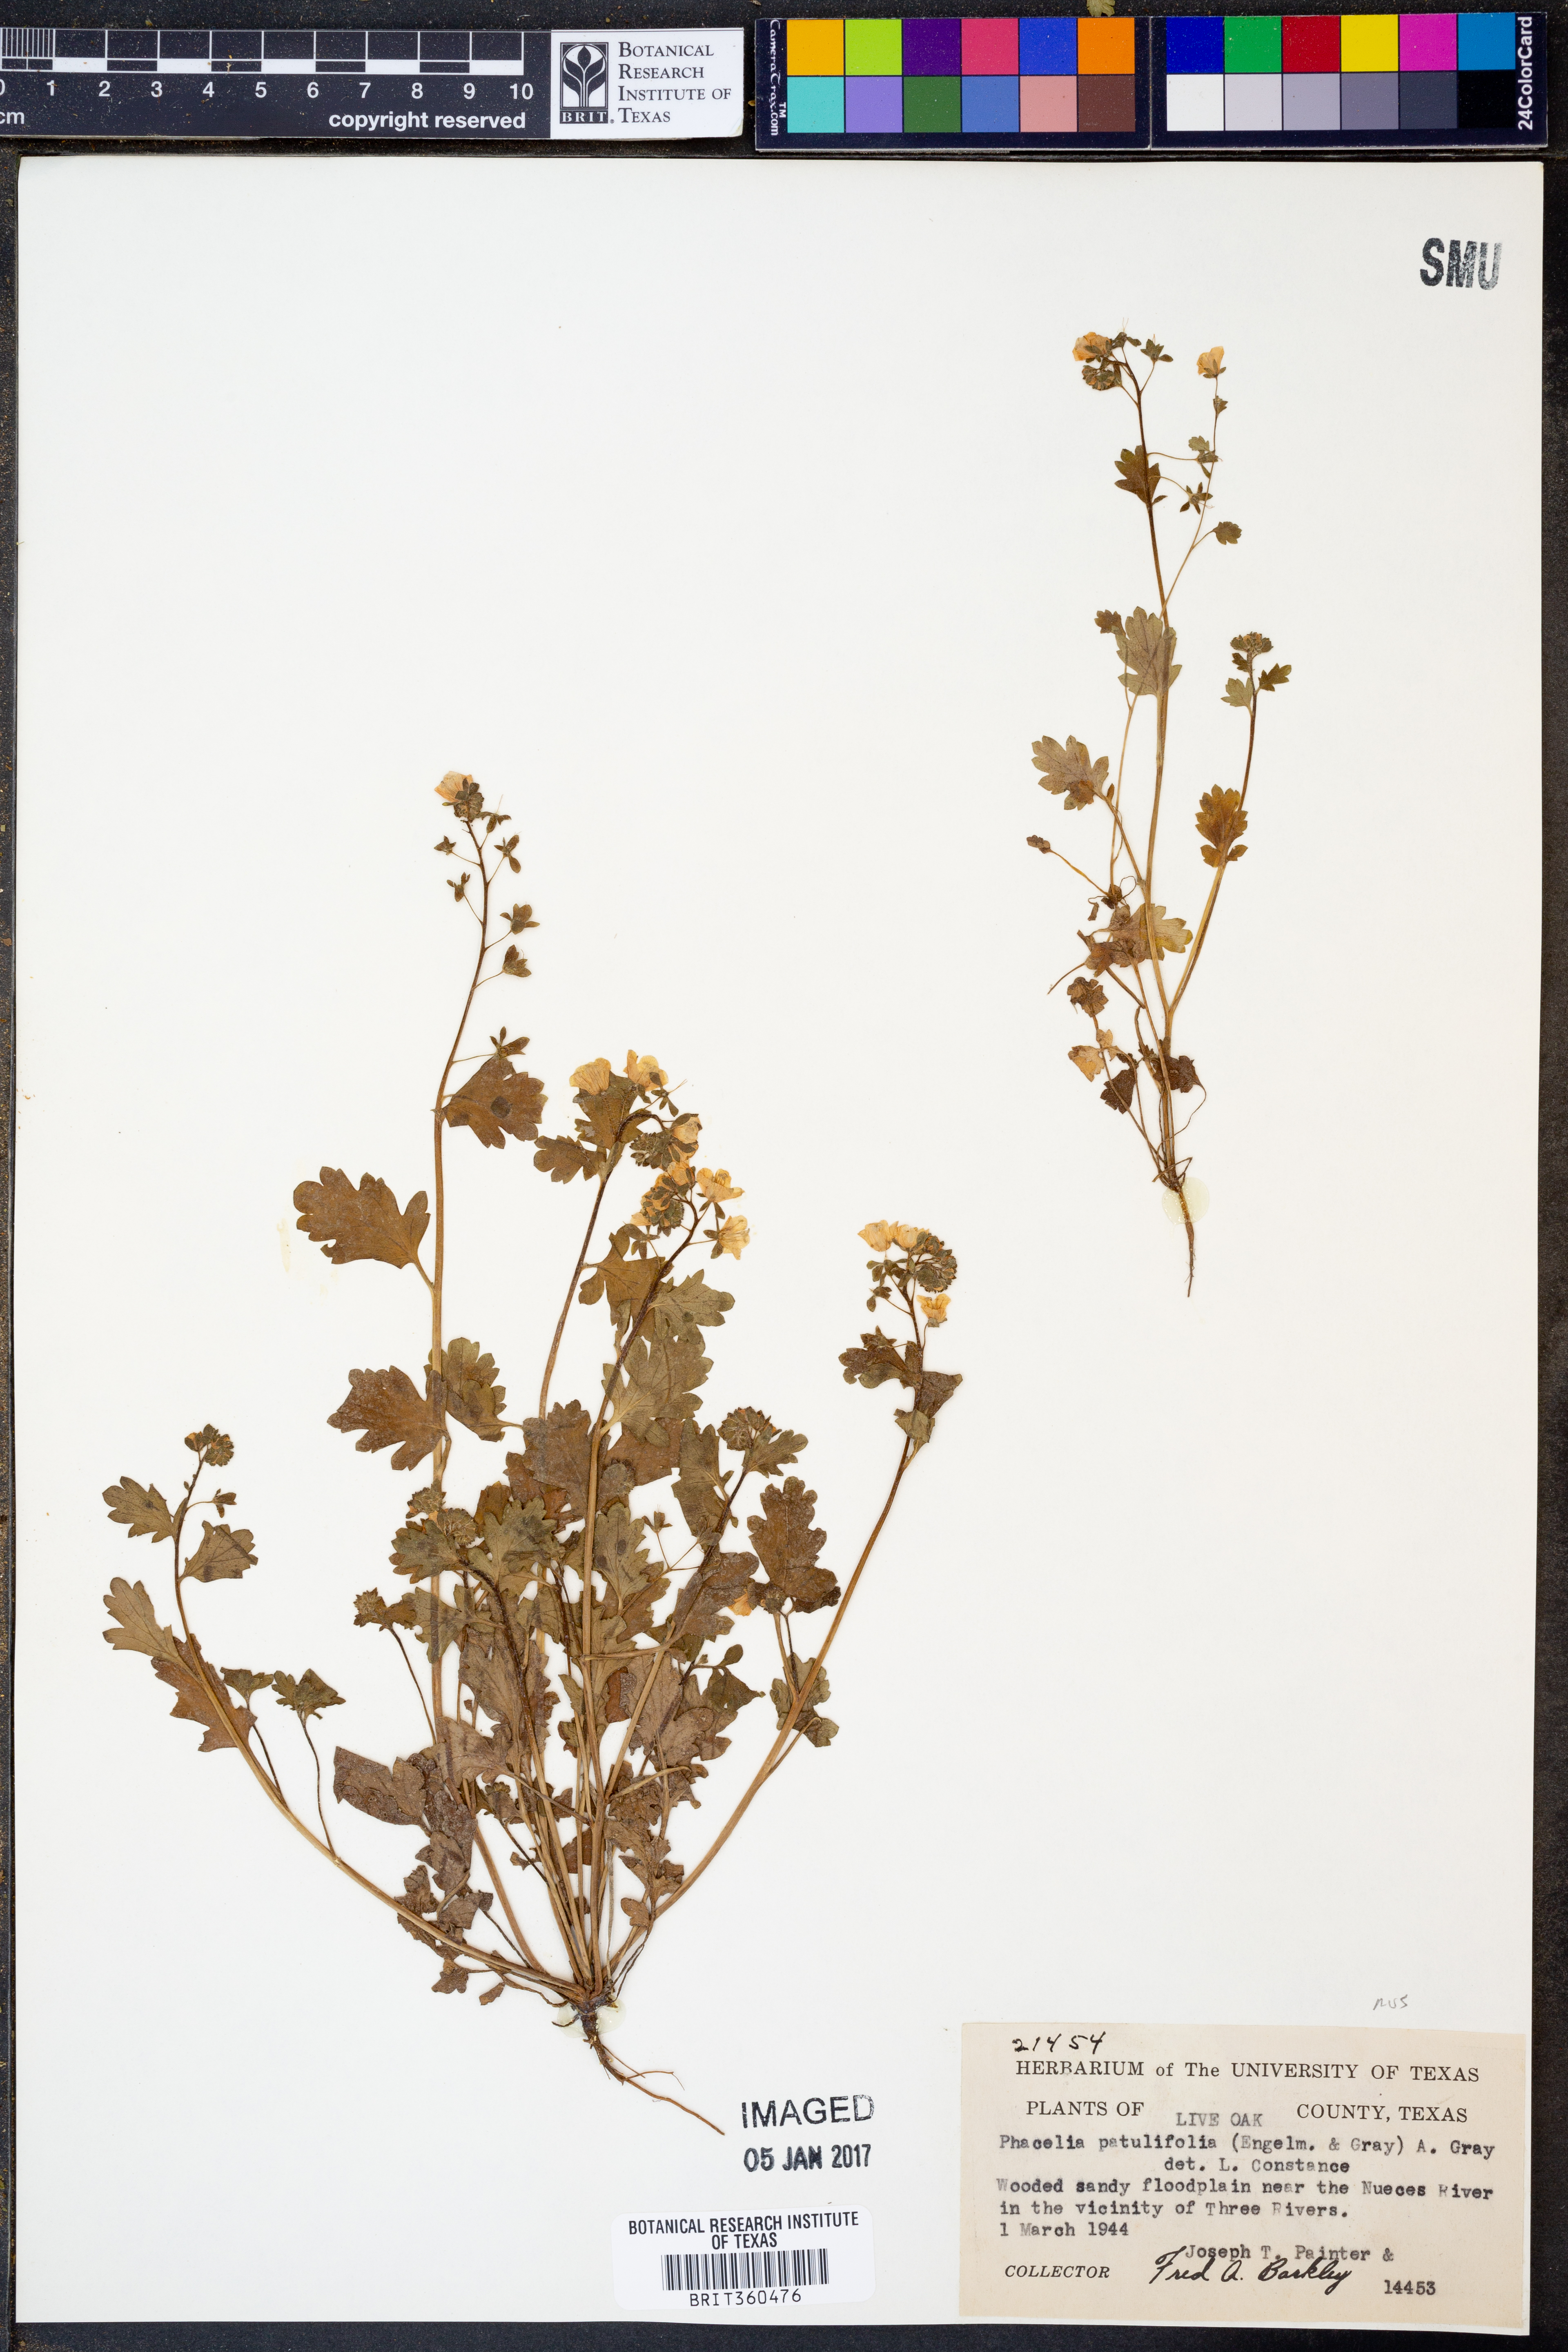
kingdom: Plantae
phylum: Tracheophyta
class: Magnoliopsida
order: Boraginales
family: Hydrophyllaceae
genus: Phacelia
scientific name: Phacelia patuliflora
